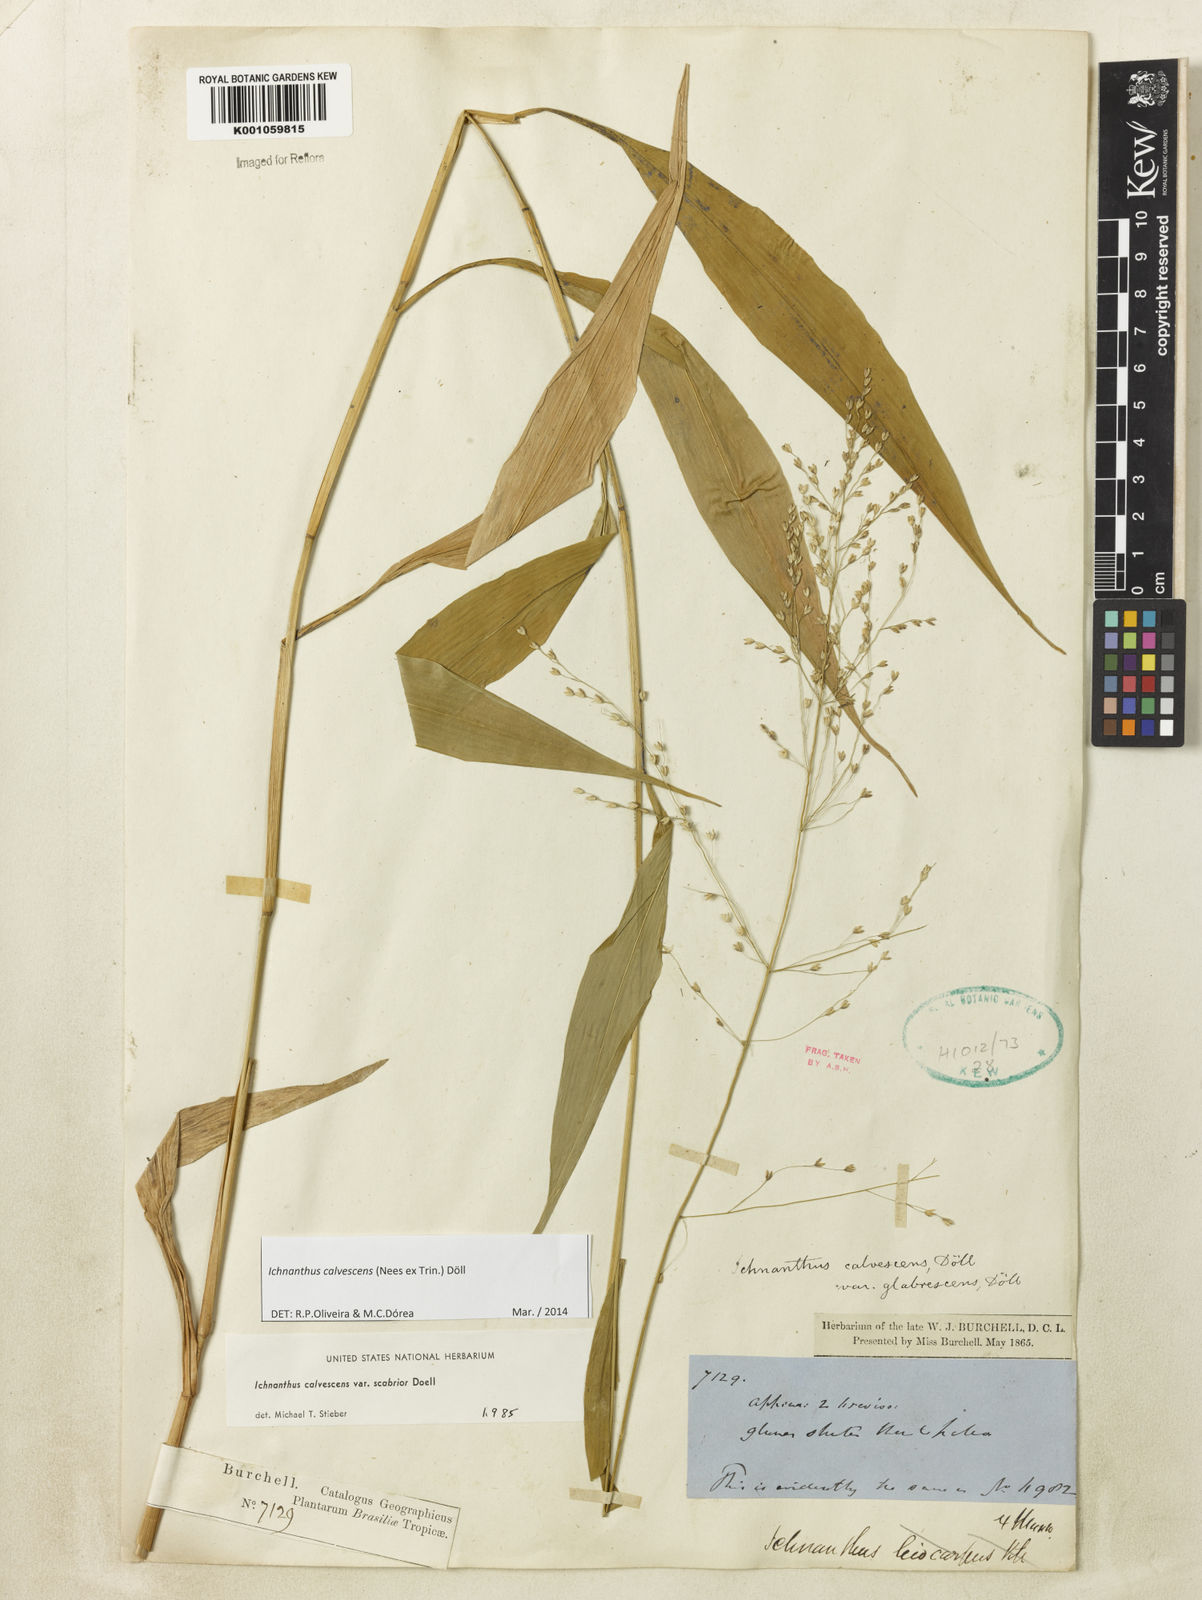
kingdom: Plantae
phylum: Tracheophyta
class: Liliopsida
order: Poales
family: Poaceae
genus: Ichnanthus
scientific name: Ichnanthus
